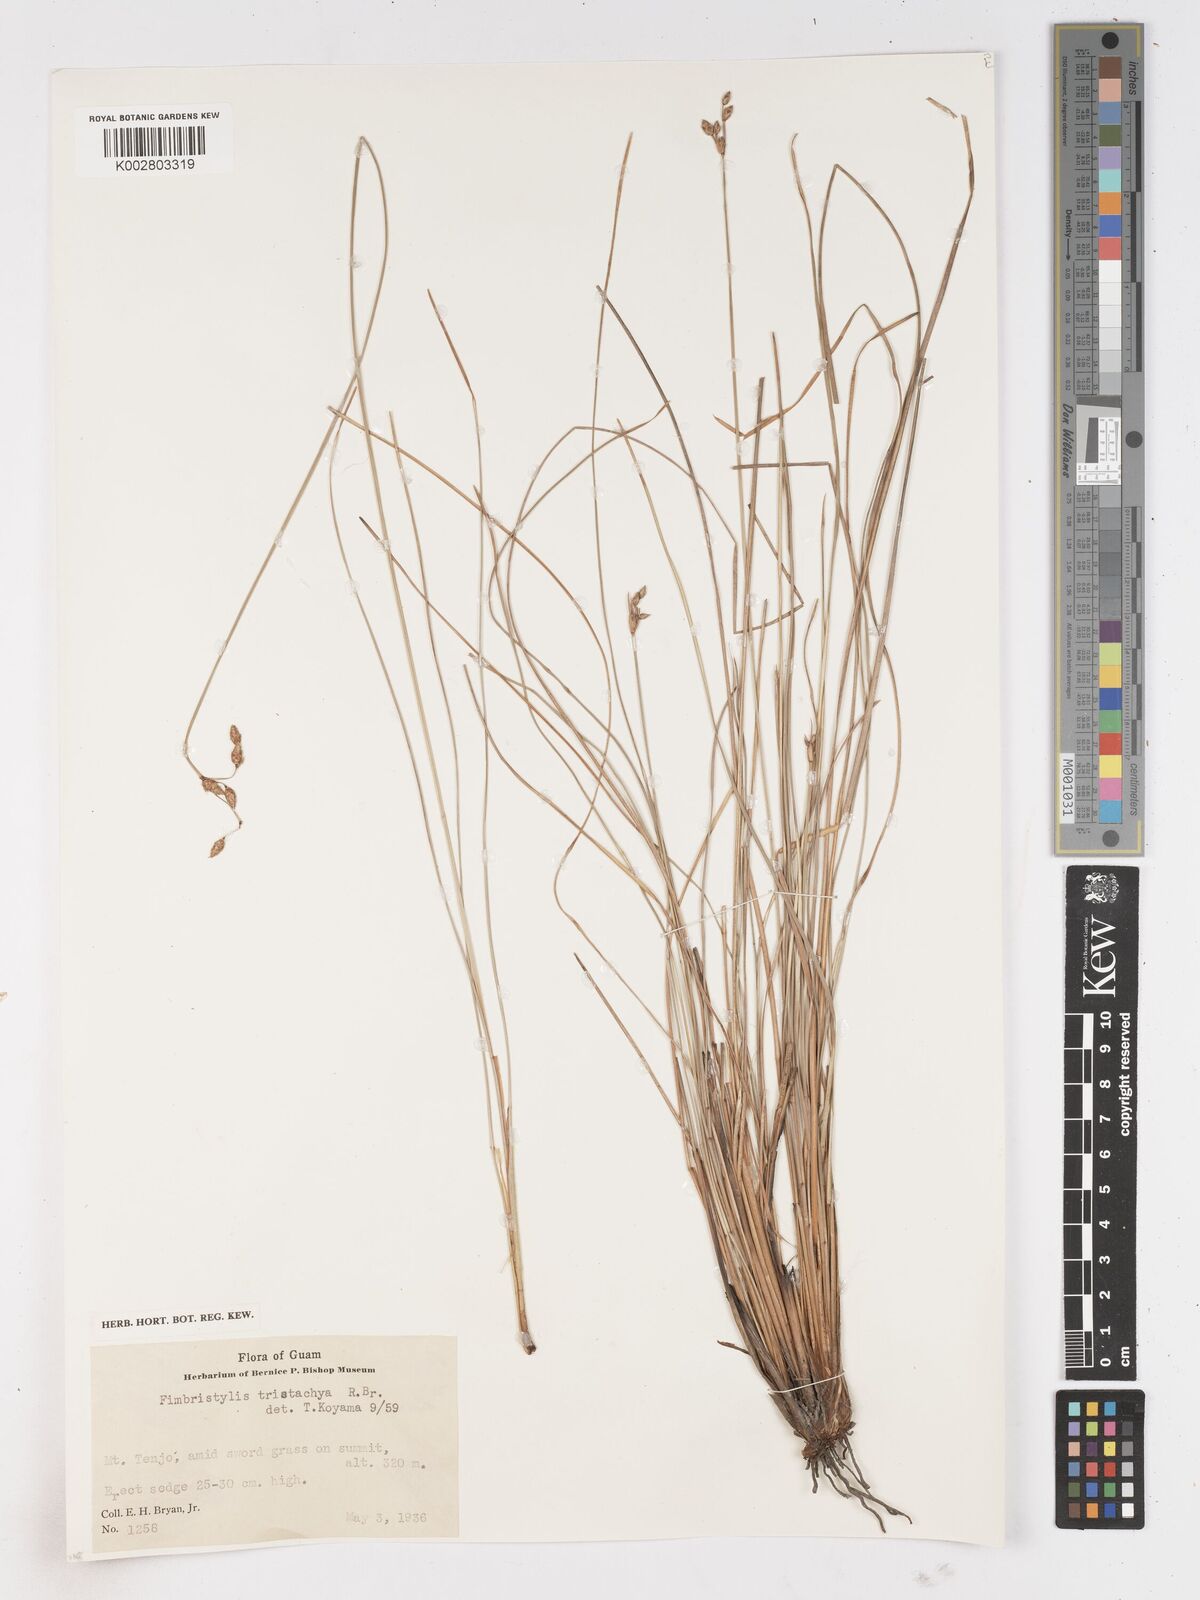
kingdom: Plantae
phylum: Tracheophyta
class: Liliopsida
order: Poales
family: Cyperaceae
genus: Fimbristylis
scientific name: Fimbristylis tristachya
